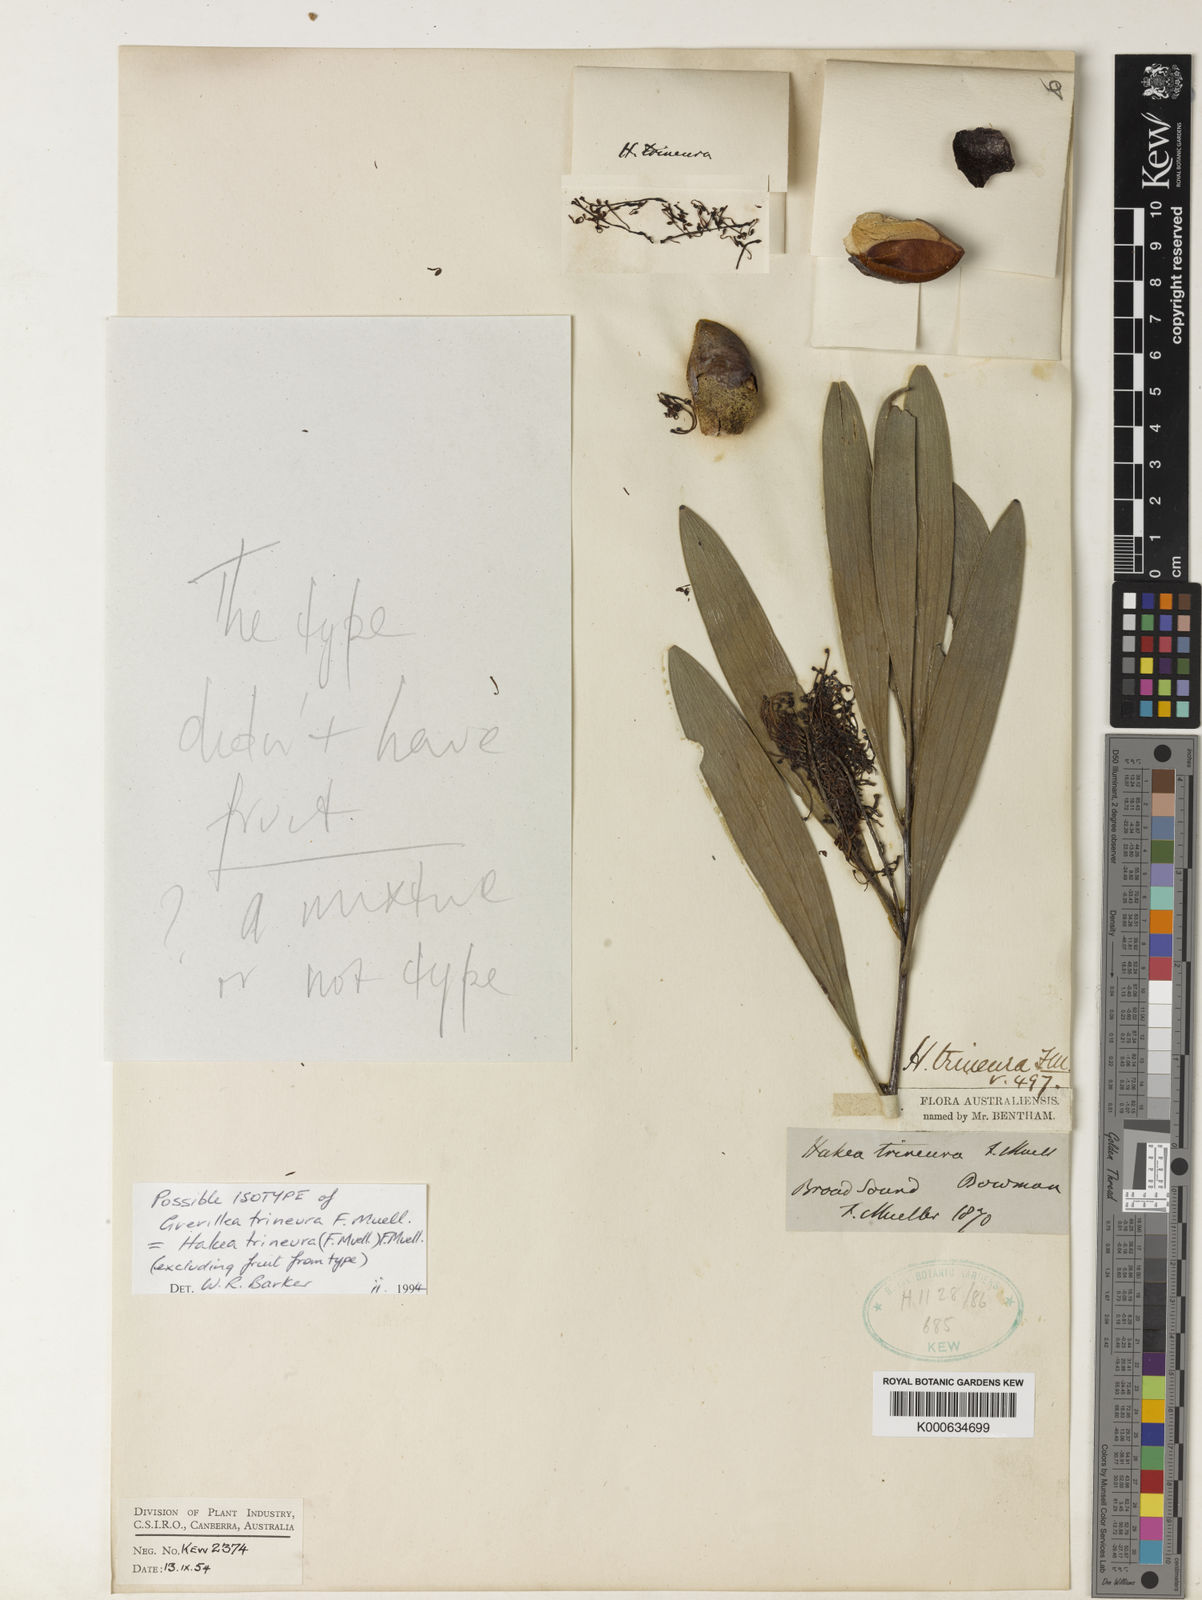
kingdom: Plantae
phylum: Tracheophyta
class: Magnoliopsida
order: Proteales
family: Proteaceae
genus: Hakea
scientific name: Hakea trineura
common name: Three-veined hakea
